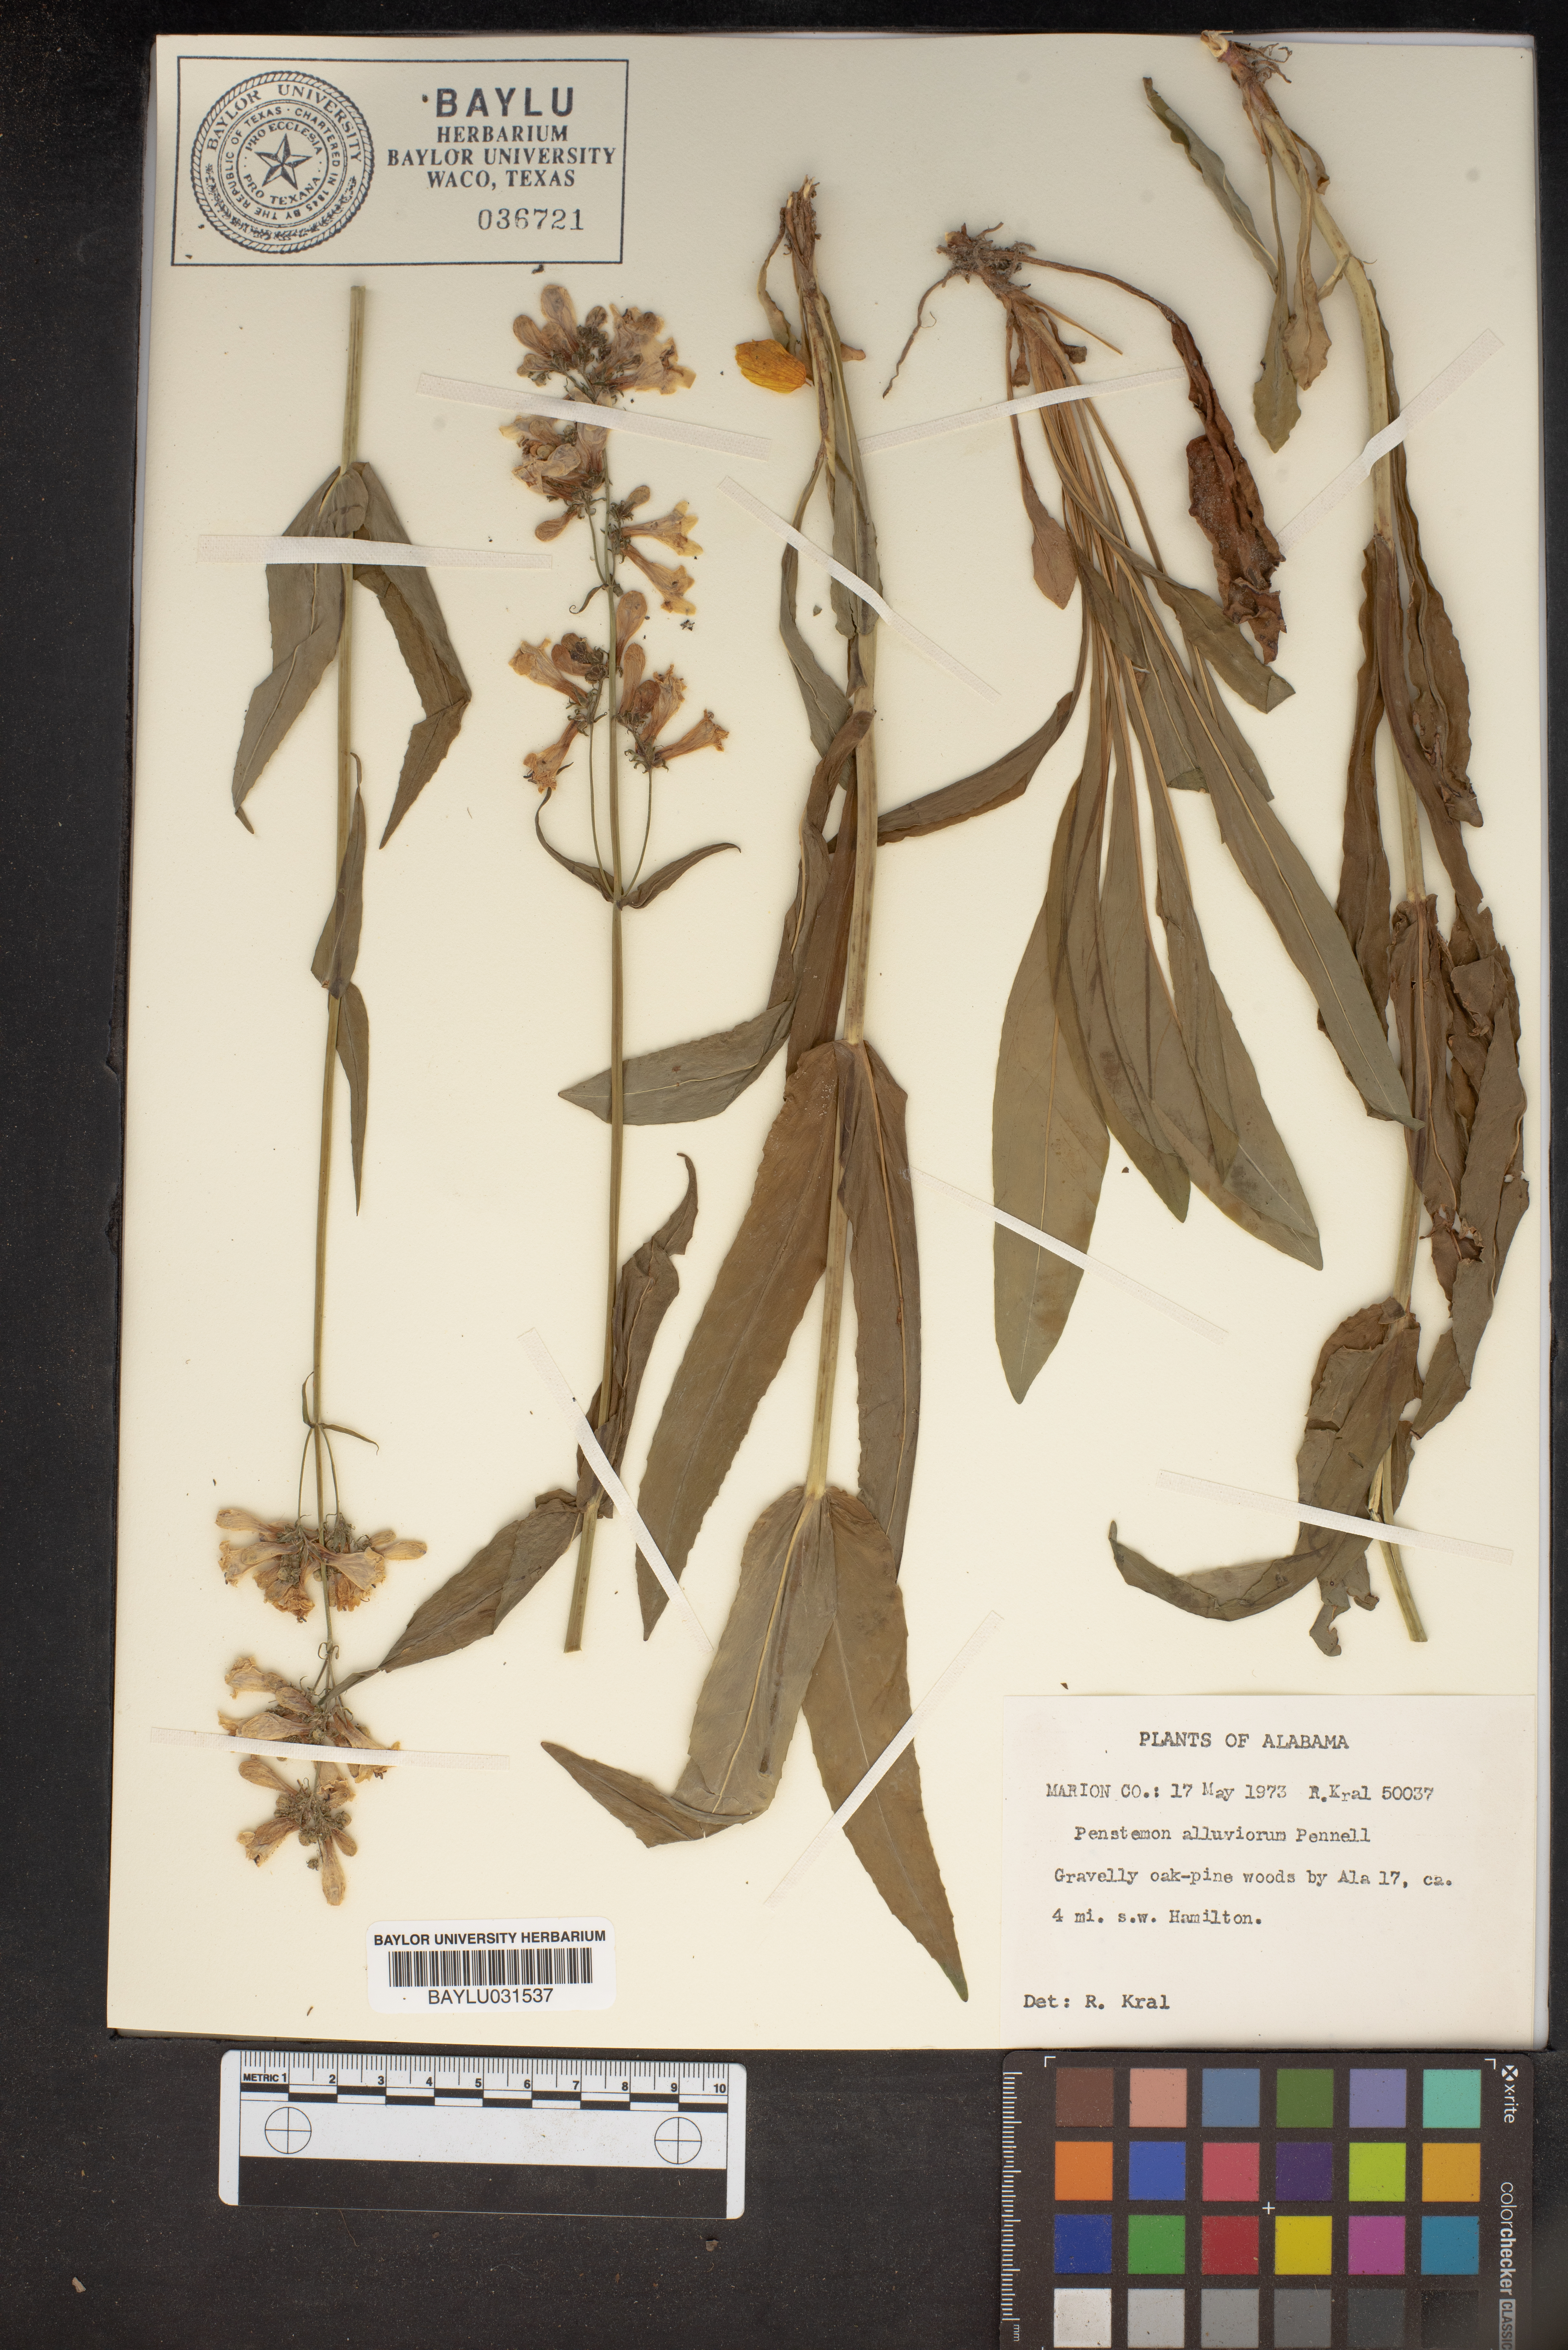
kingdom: Plantae
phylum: Tracheophyta
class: Magnoliopsida
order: Lamiales
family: Plantaginaceae
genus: Penstemon
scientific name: Penstemon digitalis
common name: Foxglove beardtongue
